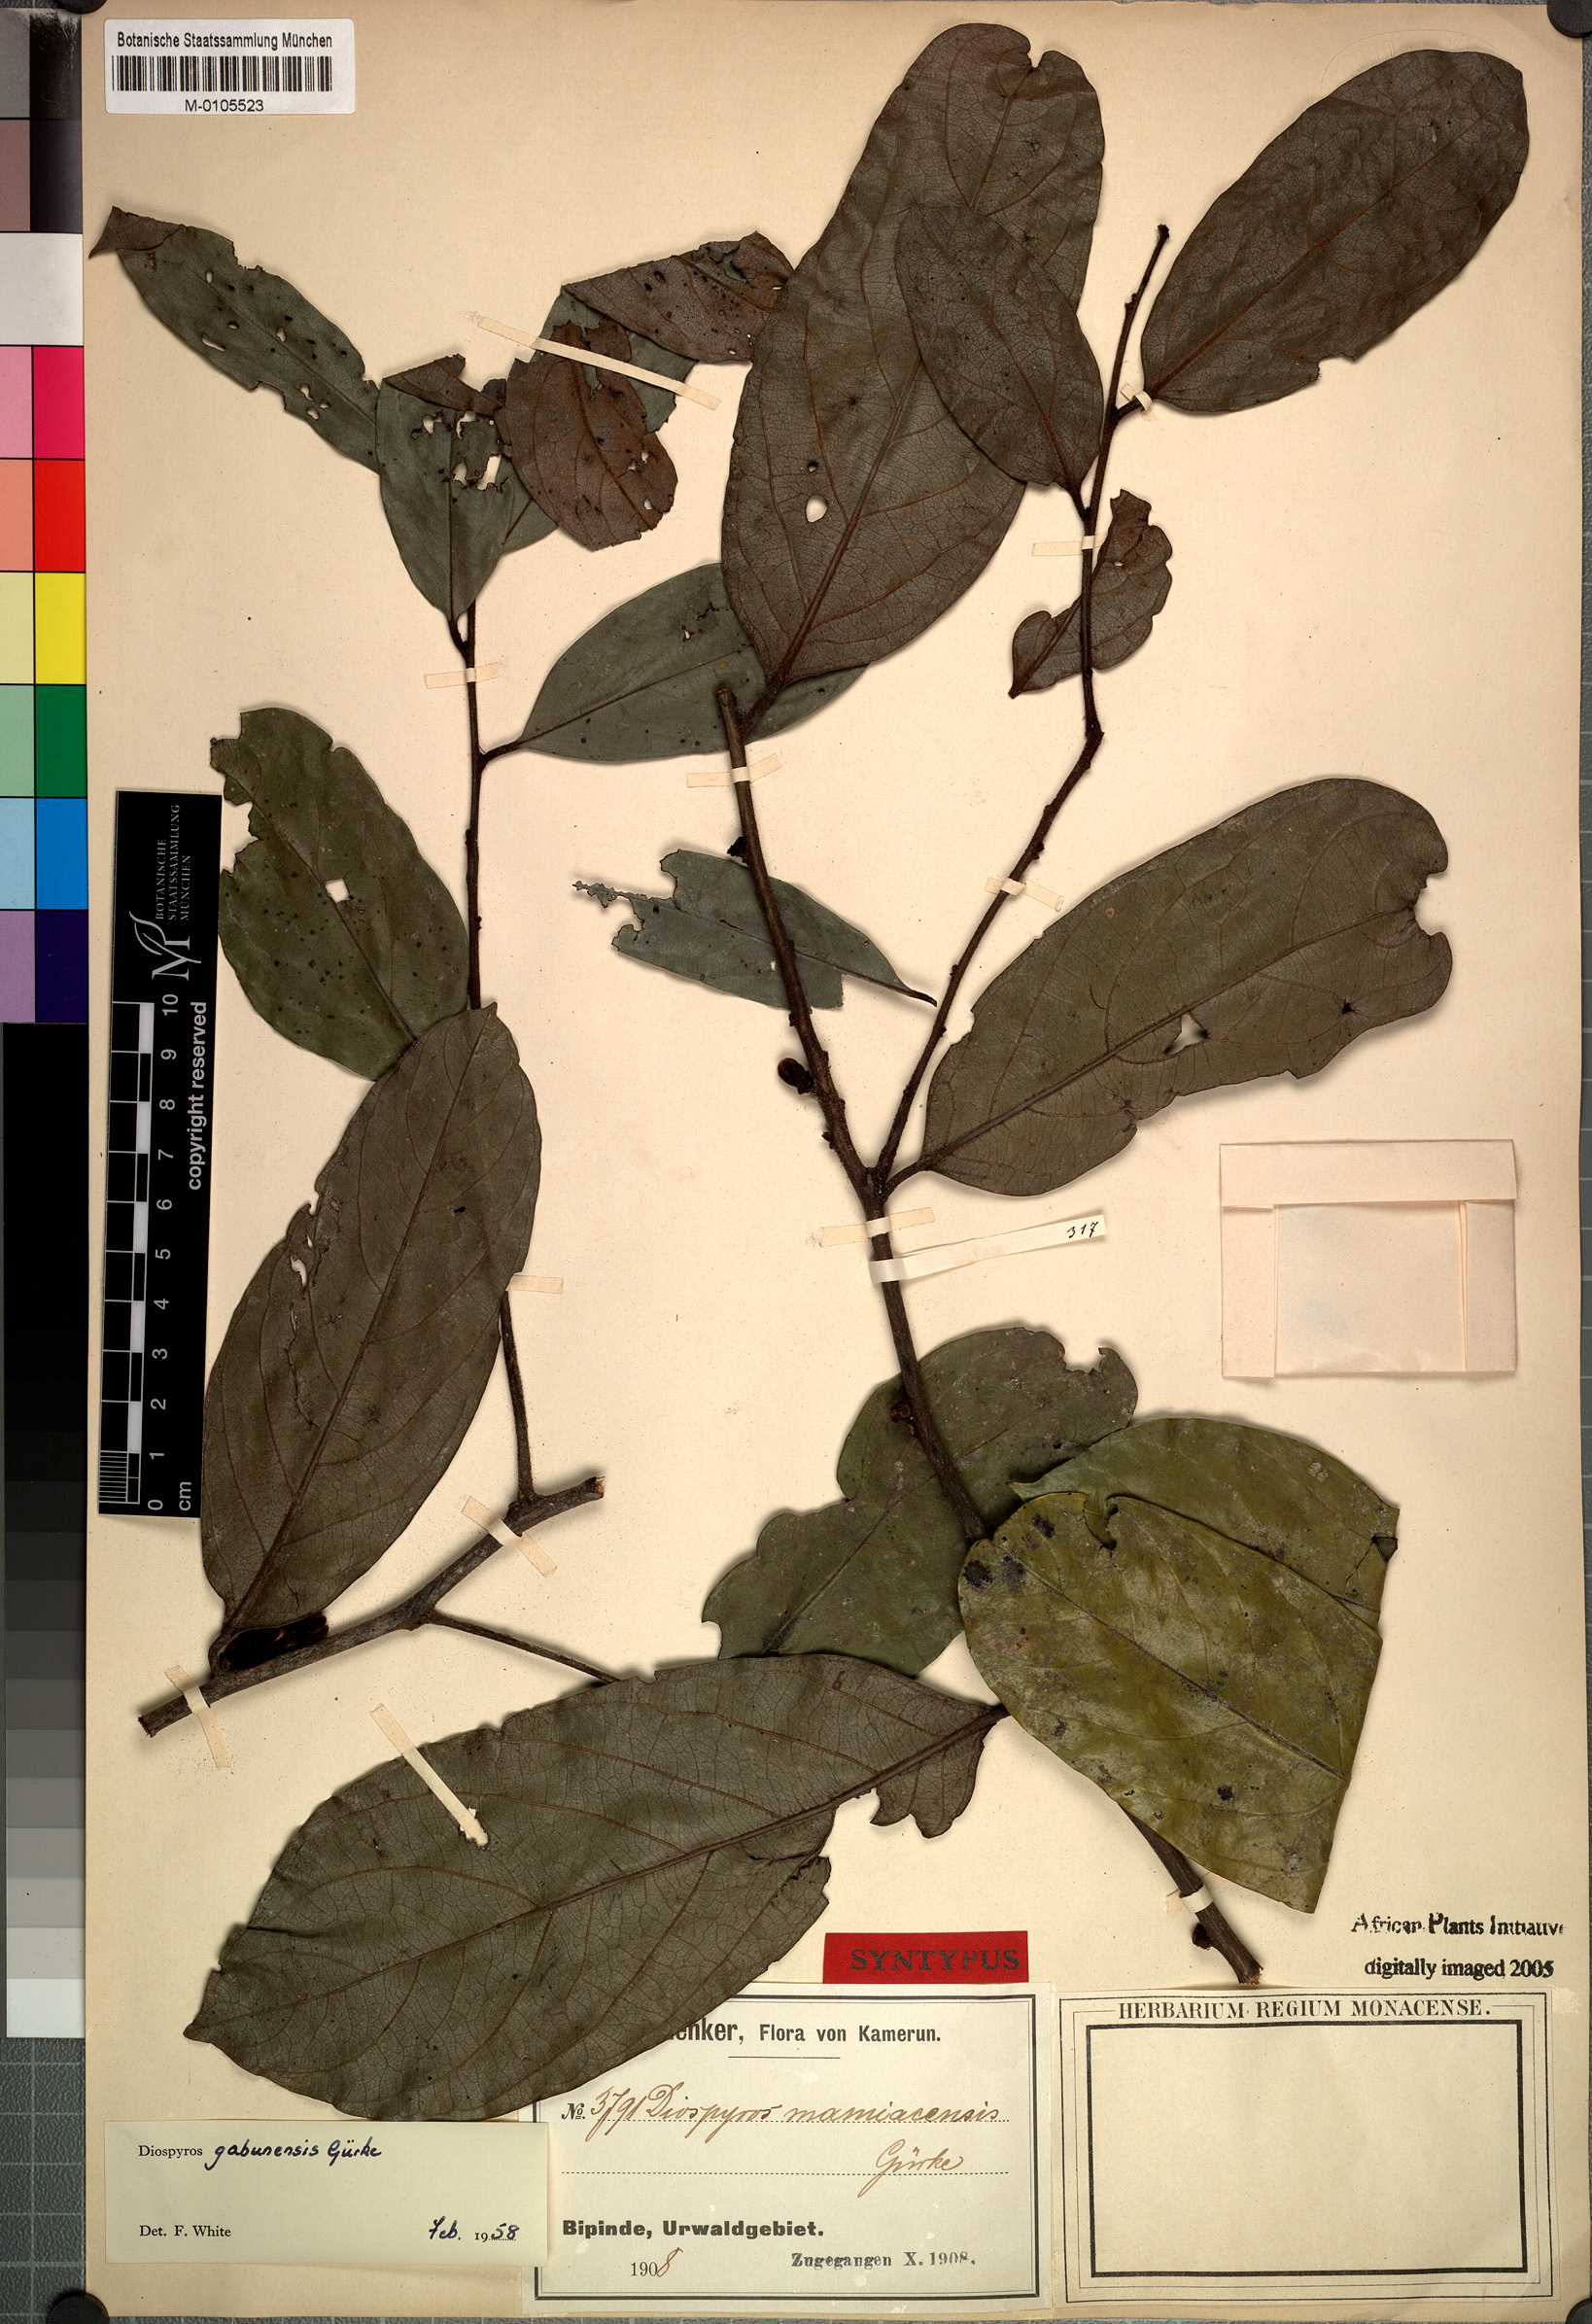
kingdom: Plantae
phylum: Tracheophyta
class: Magnoliopsida
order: Ericales
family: Ebenaceae
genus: Diospyros
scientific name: Diospyros gabunensis
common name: Flint bark tree
